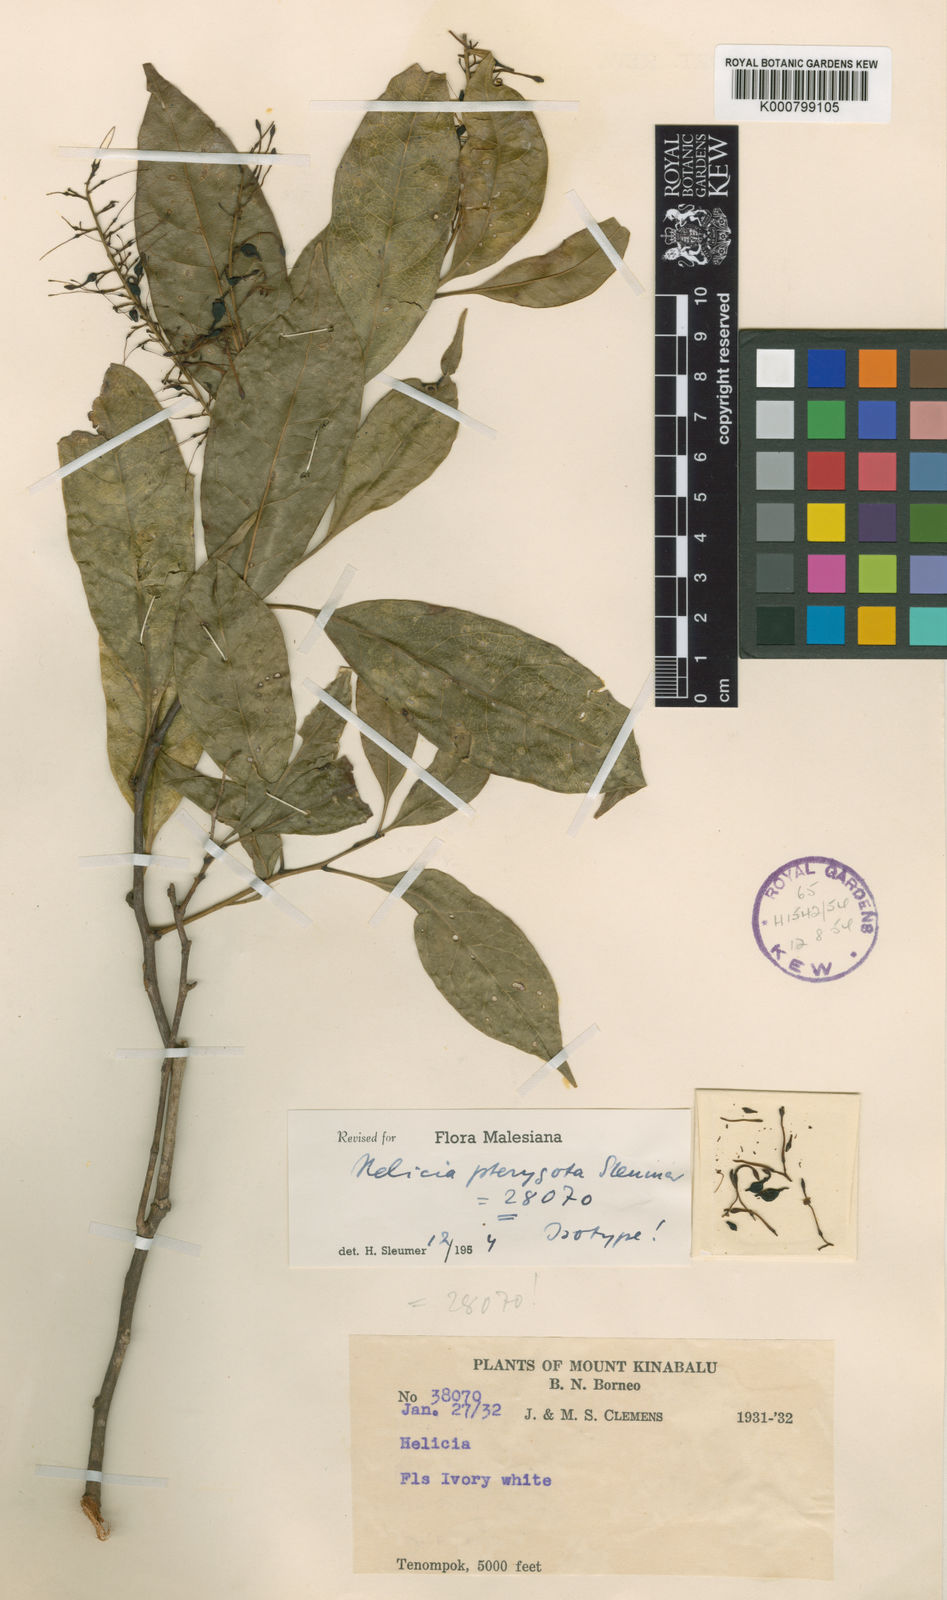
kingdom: Plantae
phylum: Tracheophyta
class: Magnoliopsida
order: Proteales
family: Proteaceae
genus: Helicia
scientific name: Helicia pterygota
